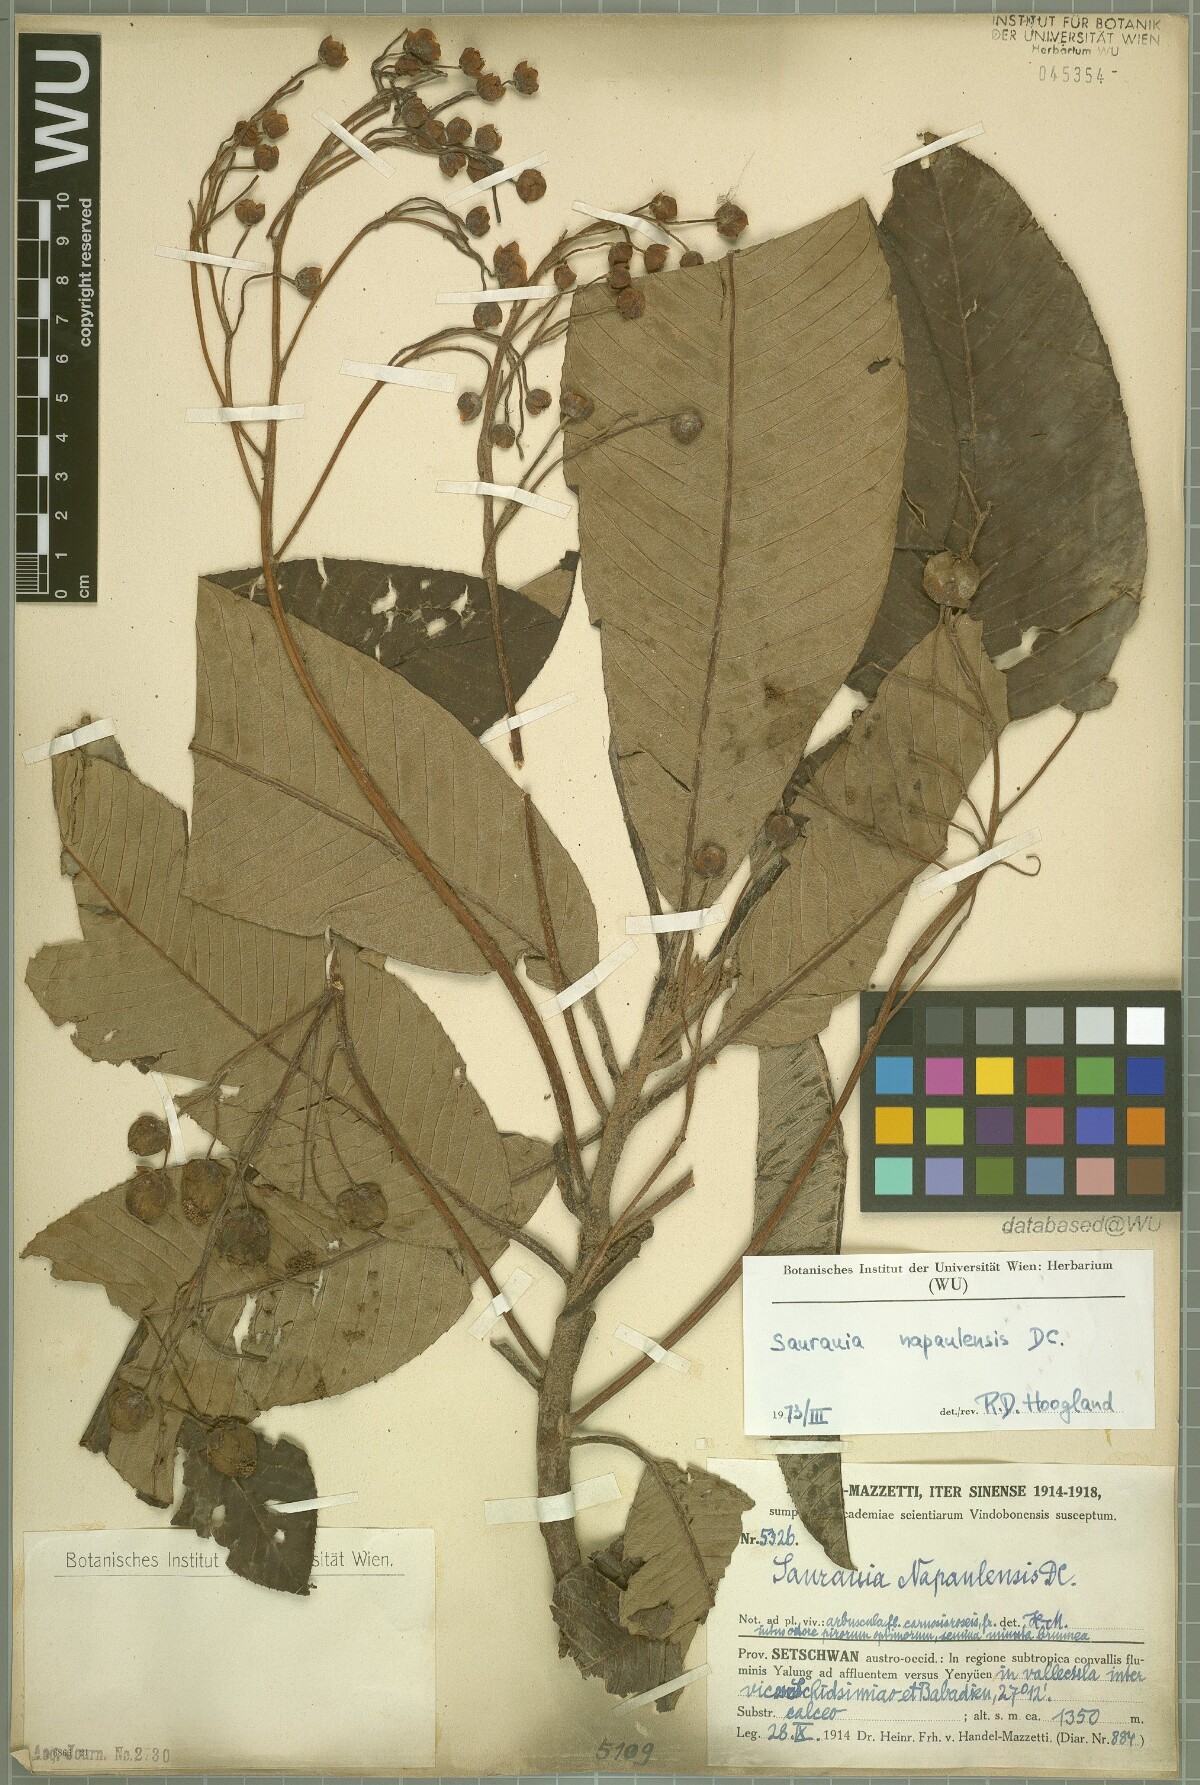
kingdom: Plantae
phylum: Tracheophyta
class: Magnoliopsida
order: Ericales
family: Actinidiaceae
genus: Saurauia
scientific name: Saurauia napaulensis
